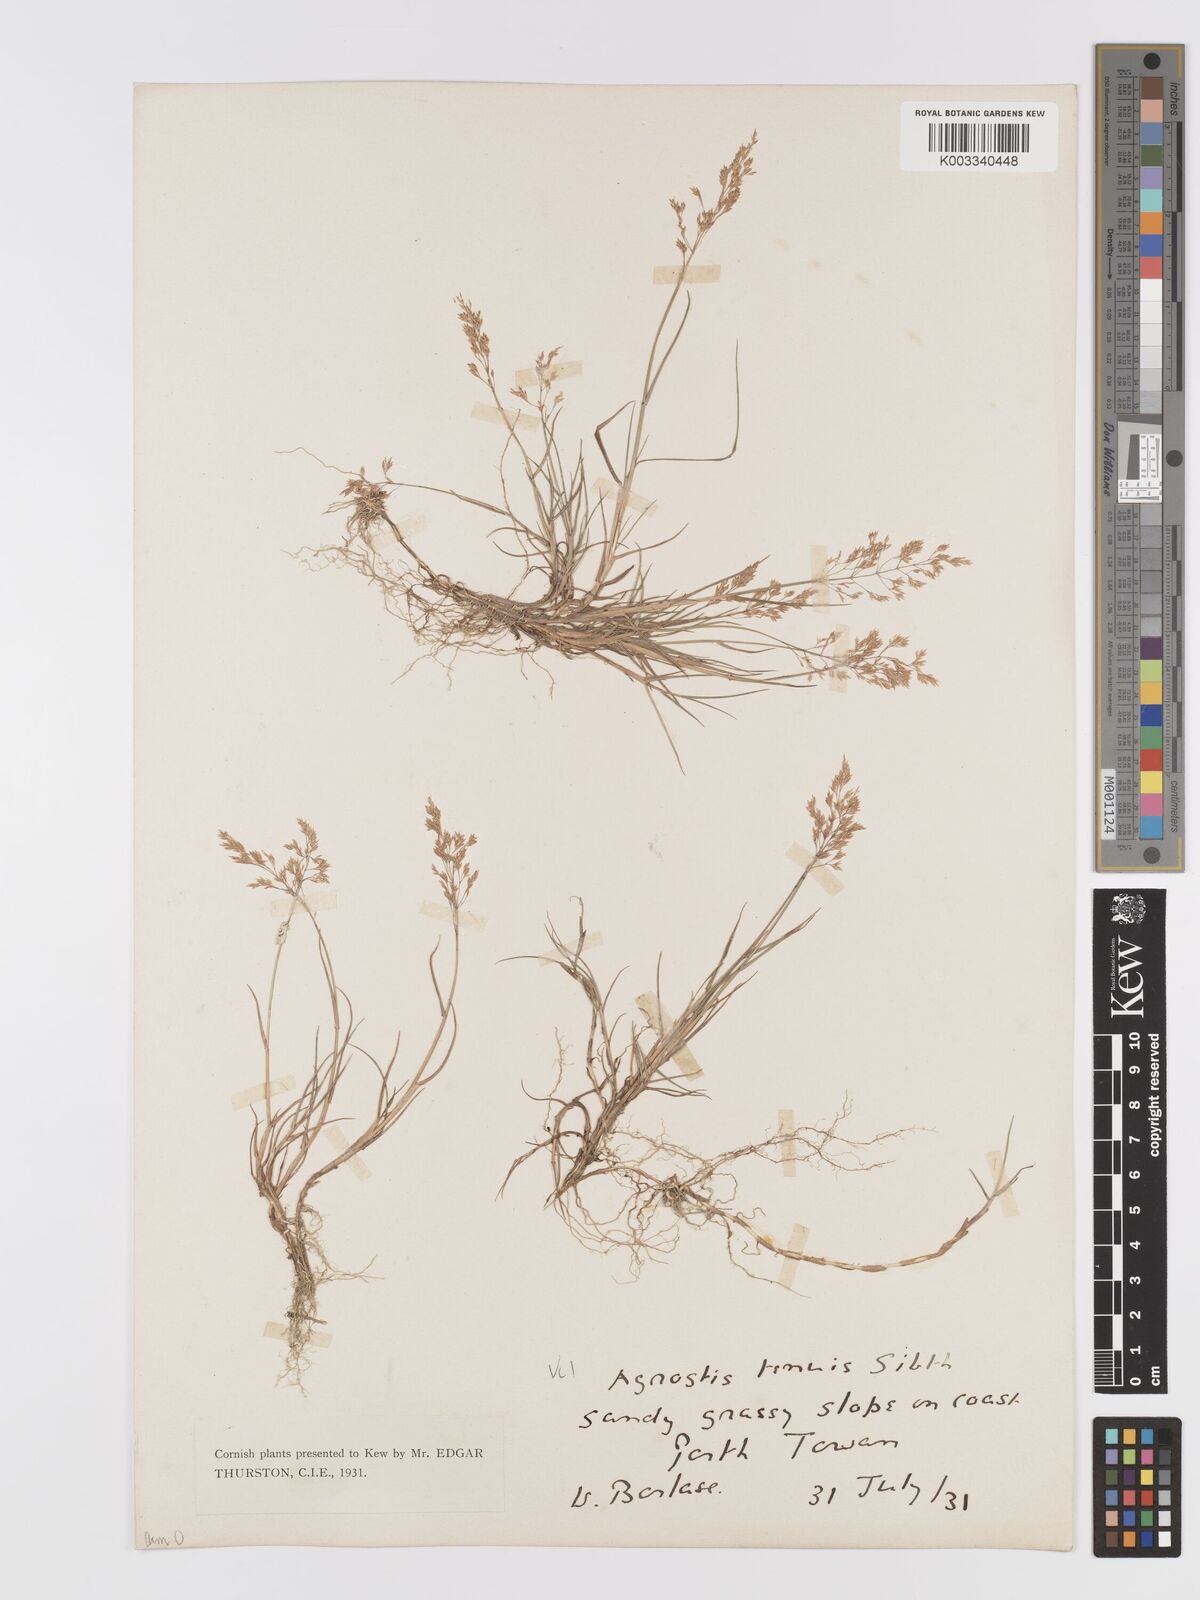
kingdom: Plantae
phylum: Tracheophyta
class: Liliopsida
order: Poales
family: Poaceae
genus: Agrostis
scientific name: Agrostis capillaris
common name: Colonial bentgrass
